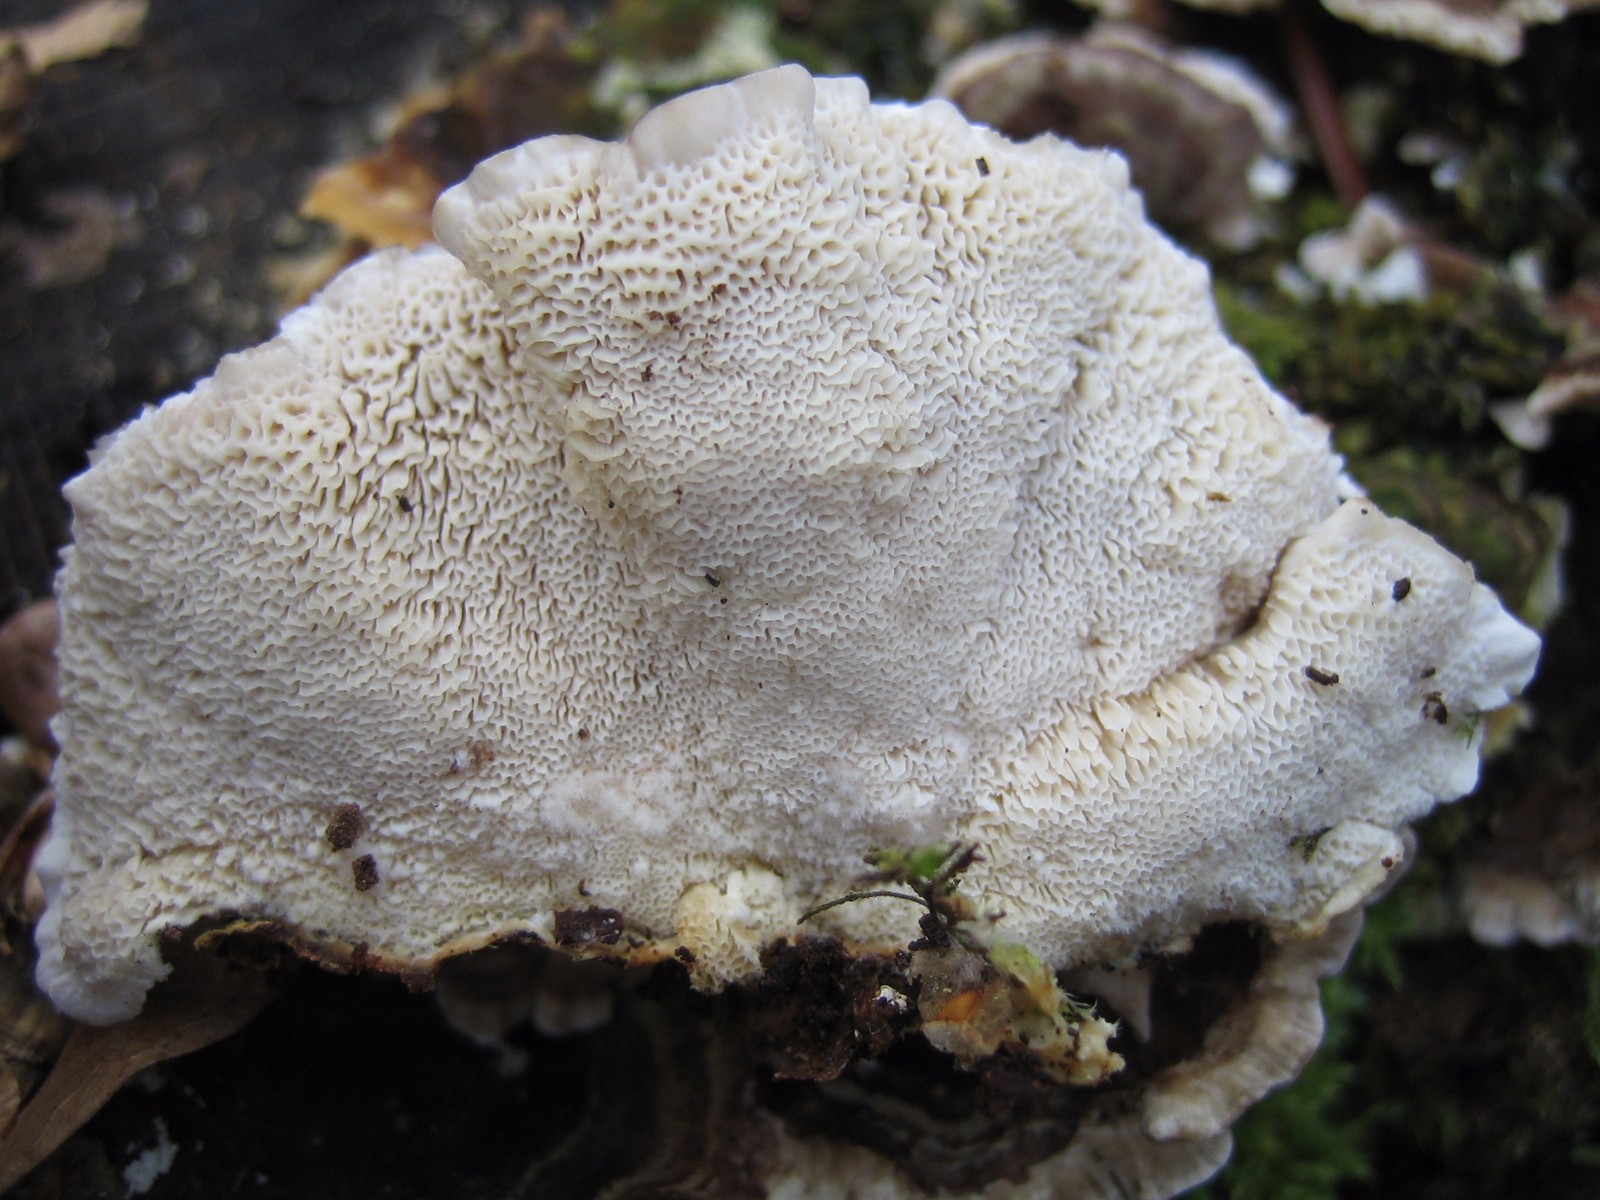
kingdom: Fungi
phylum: Basidiomycota
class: Agaricomycetes
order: Polyporales
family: Polyporaceae
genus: Trametes
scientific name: Trametes versicolor
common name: broget læderporesvamp
